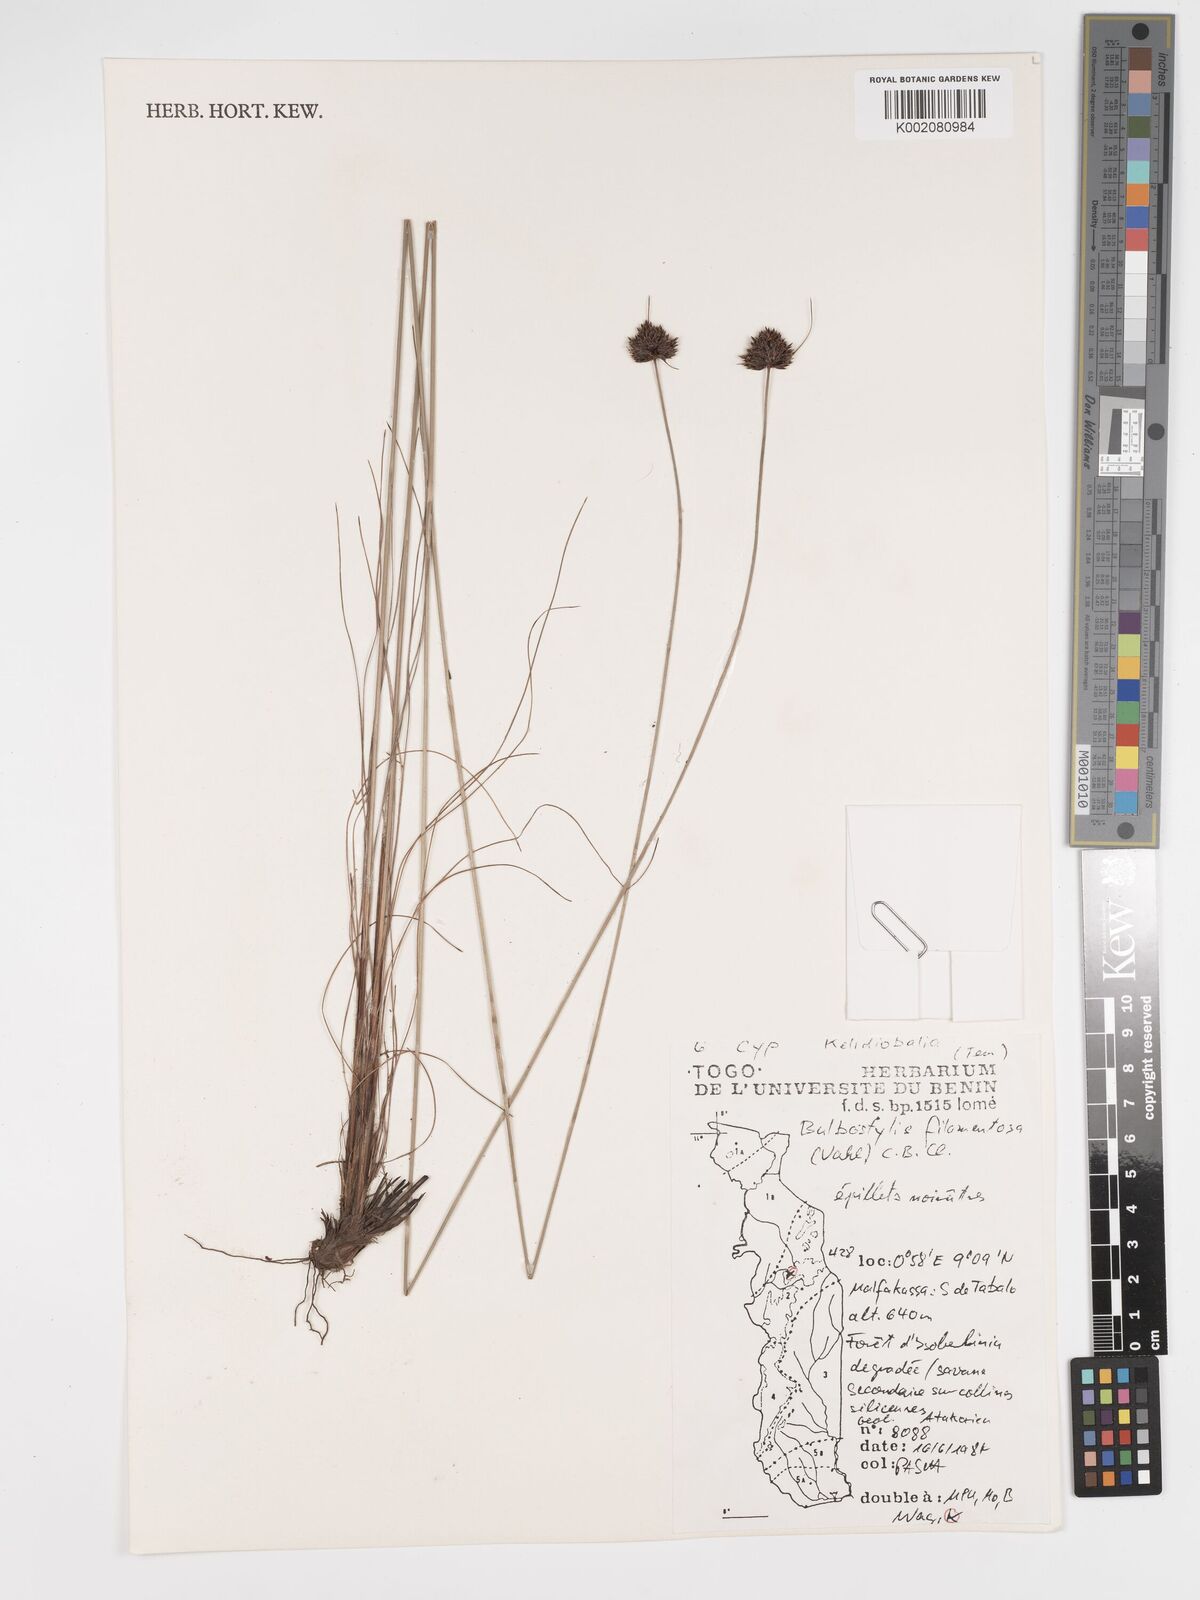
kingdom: Plantae
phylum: Tracheophyta
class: Liliopsida
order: Poales
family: Cyperaceae
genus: Bulbostylis
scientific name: Bulbostylis filamentosa
